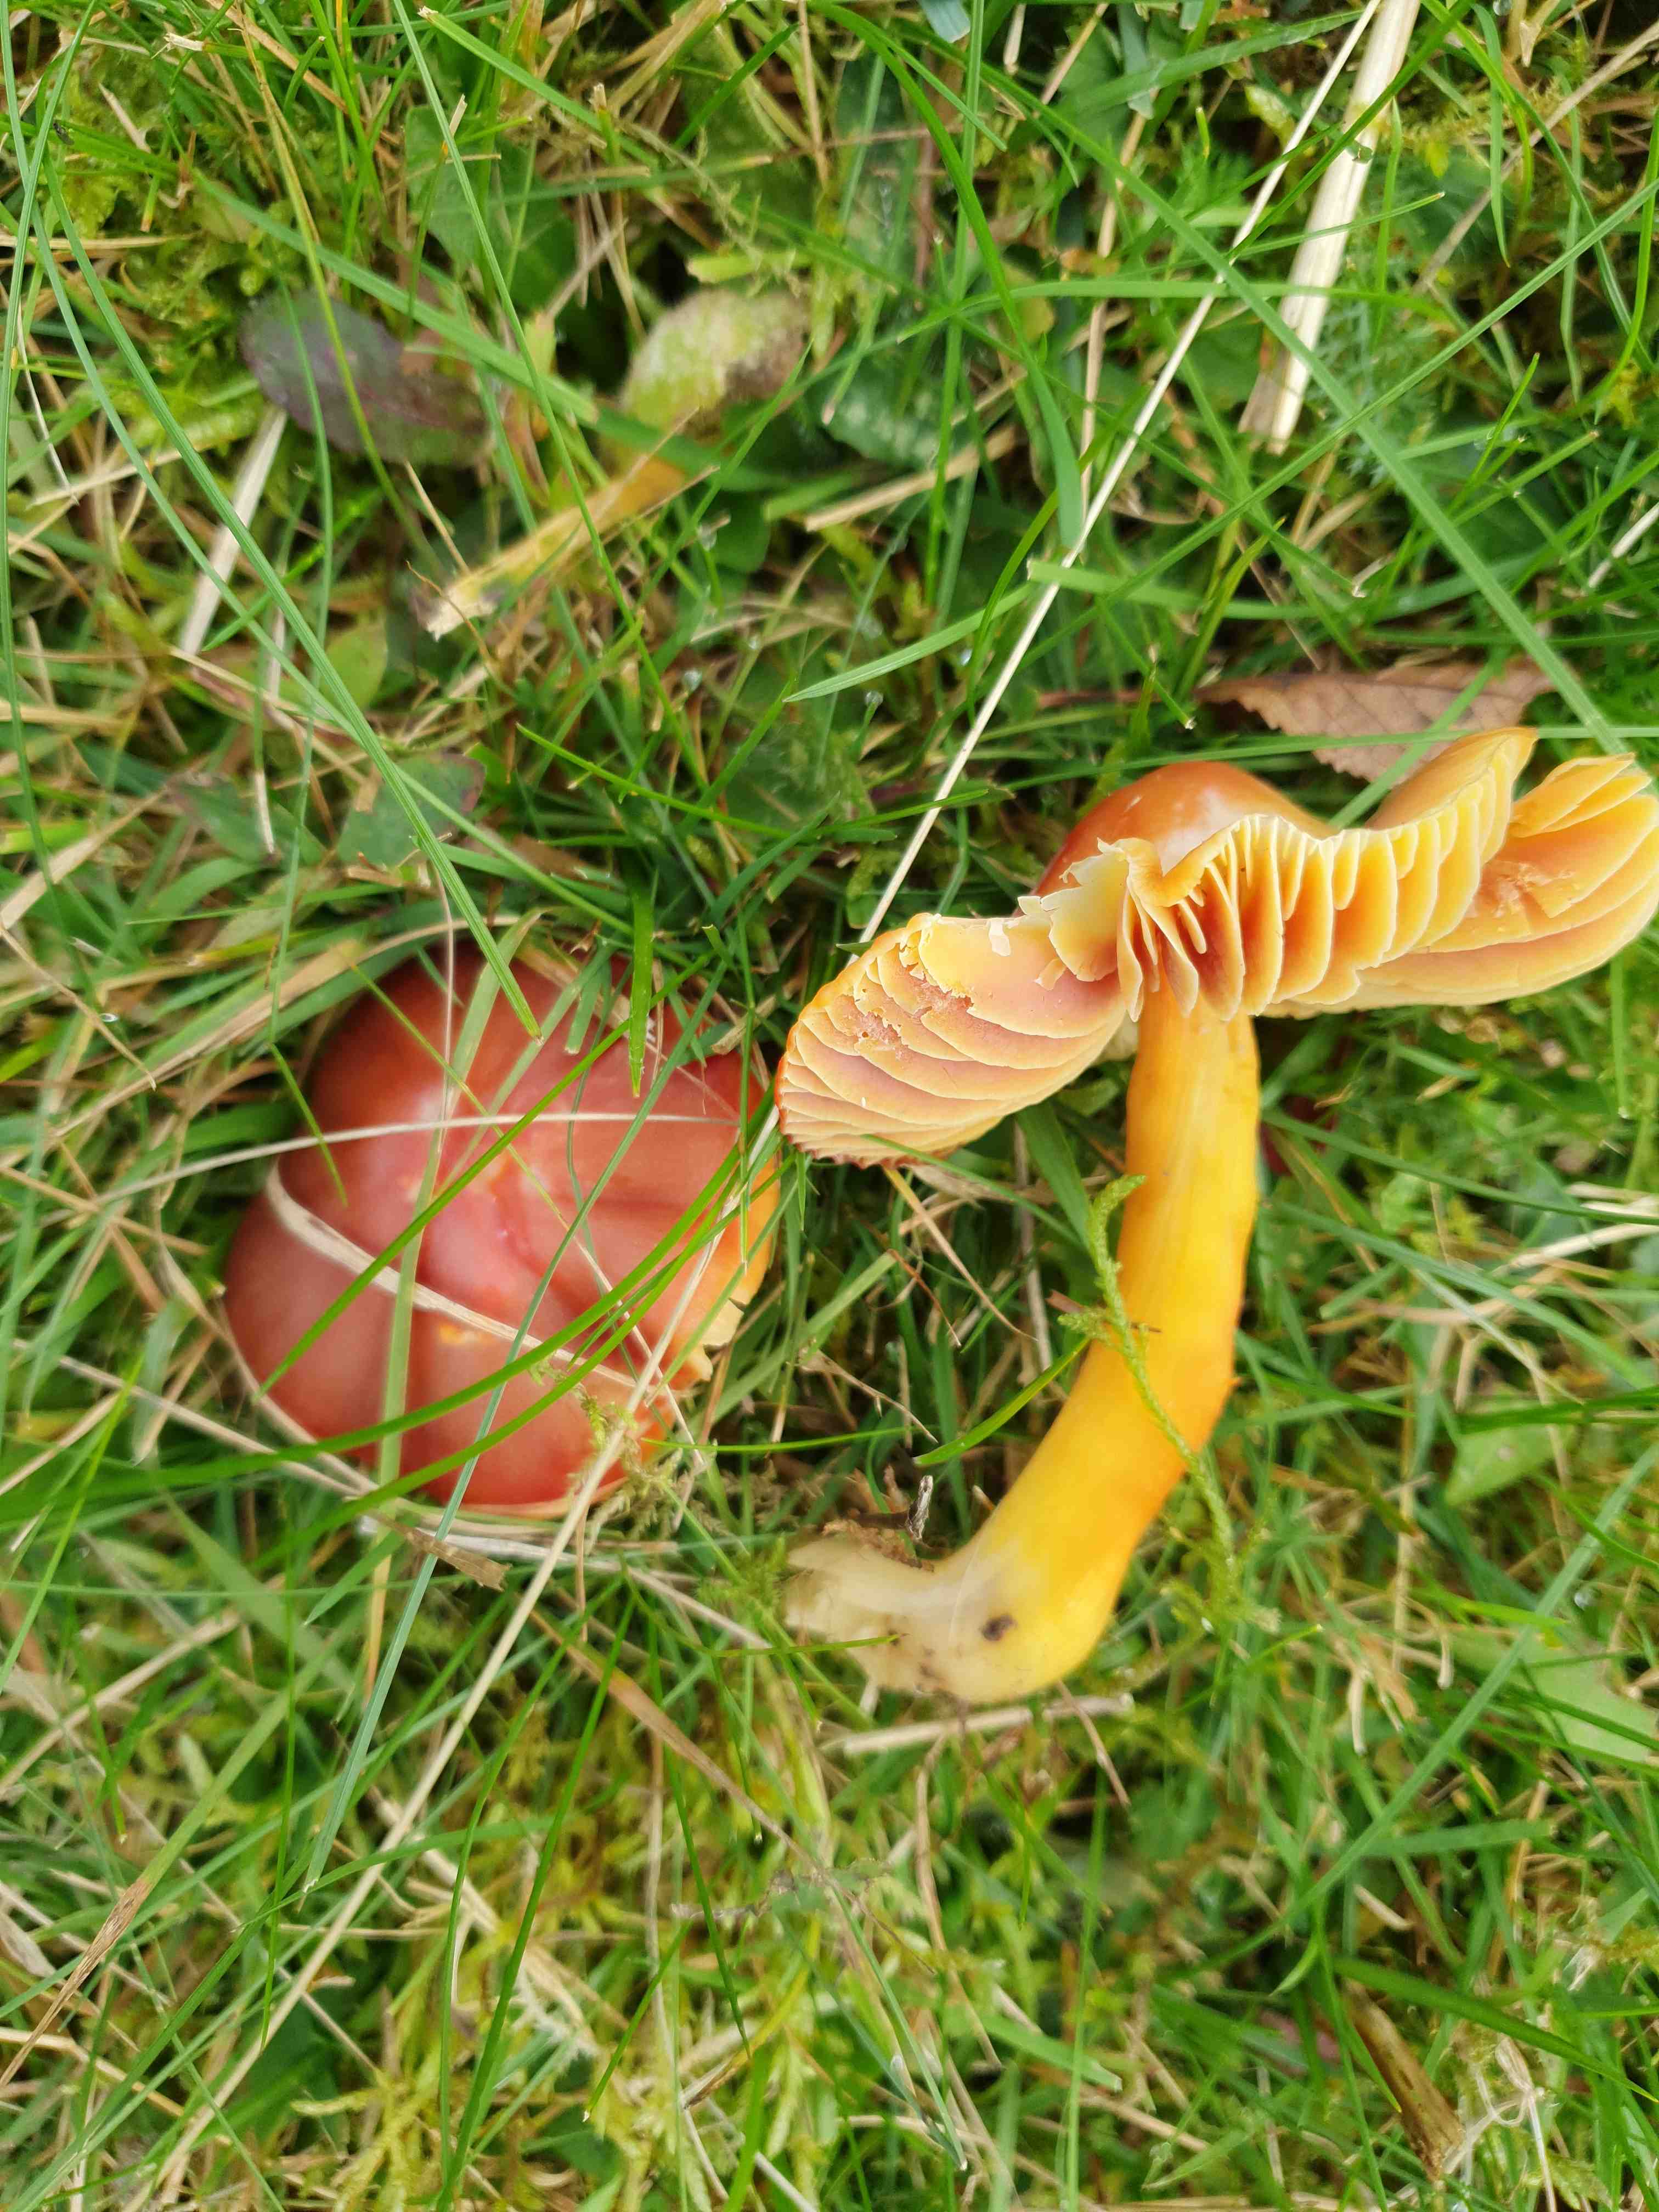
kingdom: Fungi
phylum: Basidiomycota
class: Agaricomycetes
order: Agaricales
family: Hygrophoraceae
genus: Hygrocybe
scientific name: Hygrocybe punicea
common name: skarlagen-vokshat
